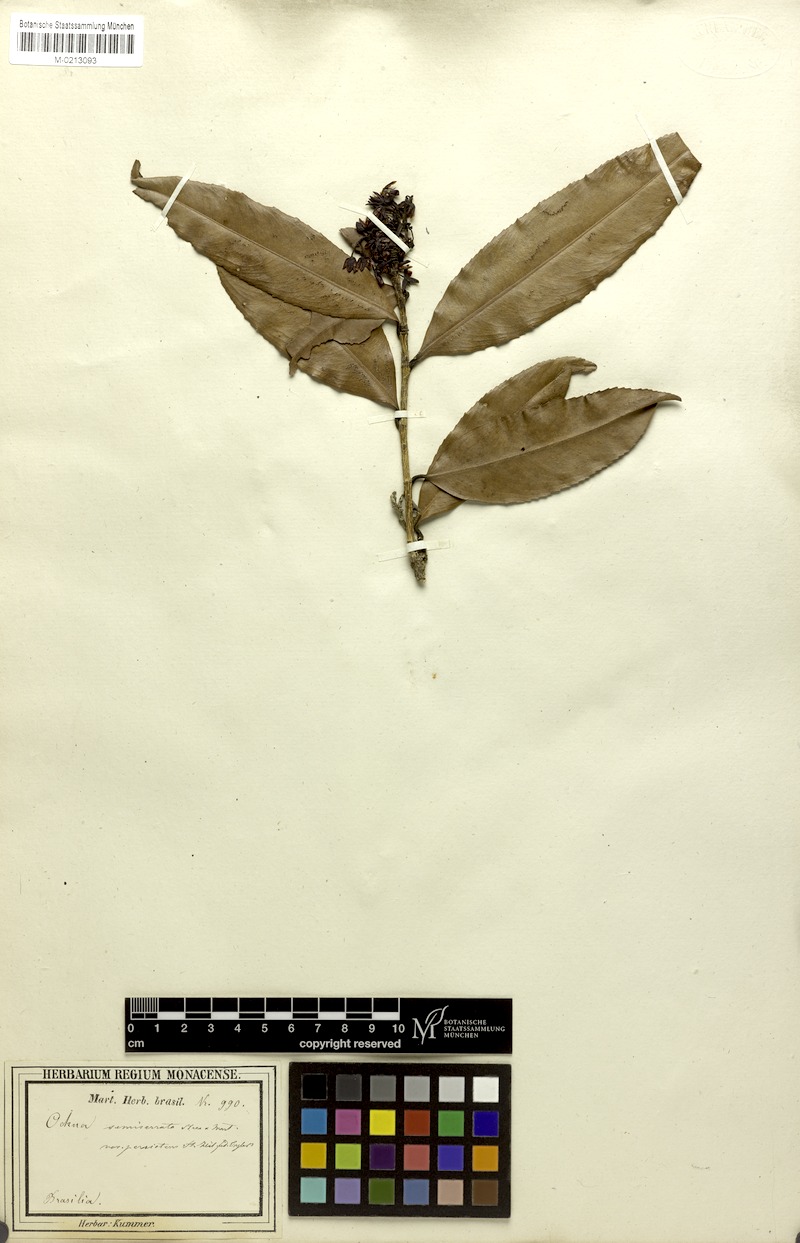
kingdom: Plantae
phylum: Tracheophyta
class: Magnoliopsida
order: Malpighiales
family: Ochnaceae
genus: Ouratea
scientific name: Ouratea semiserrata
